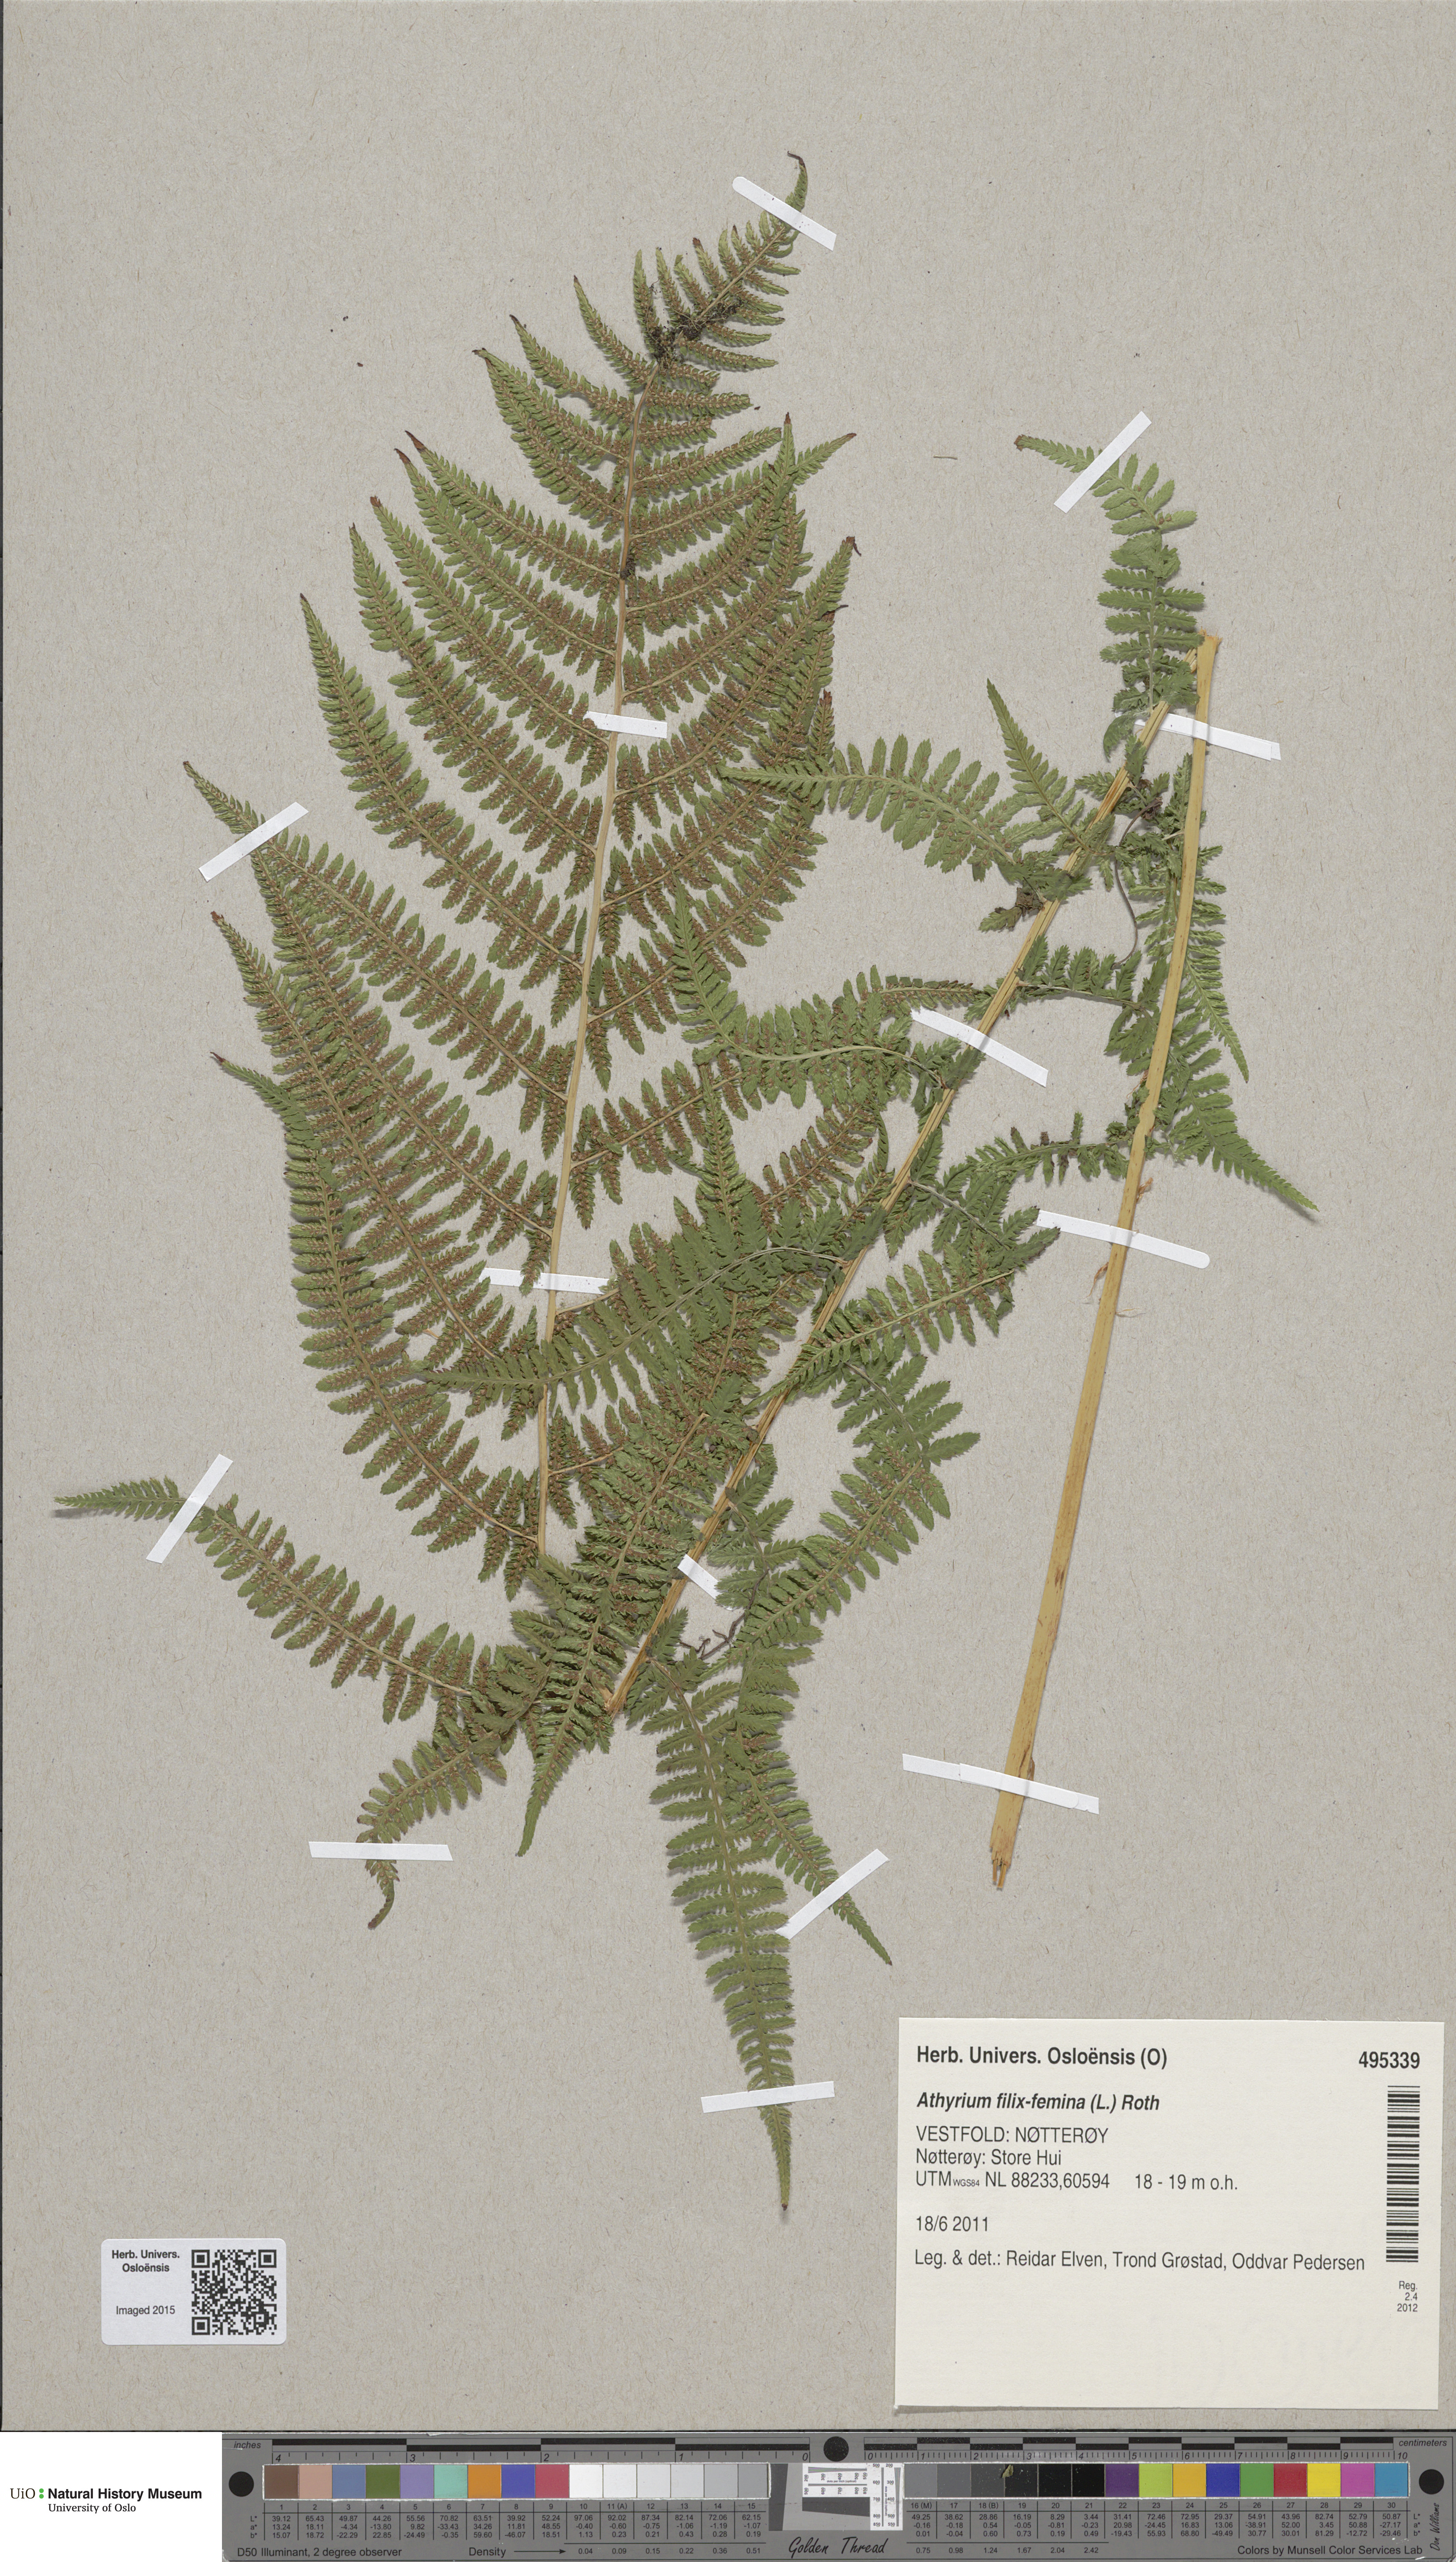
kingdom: Plantae
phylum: Tracheophyta
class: Polypodiopsida
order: Polypodiales
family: Athyriaceae
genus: Athyrium
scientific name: Athyrium filix-femina
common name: Lady fern
